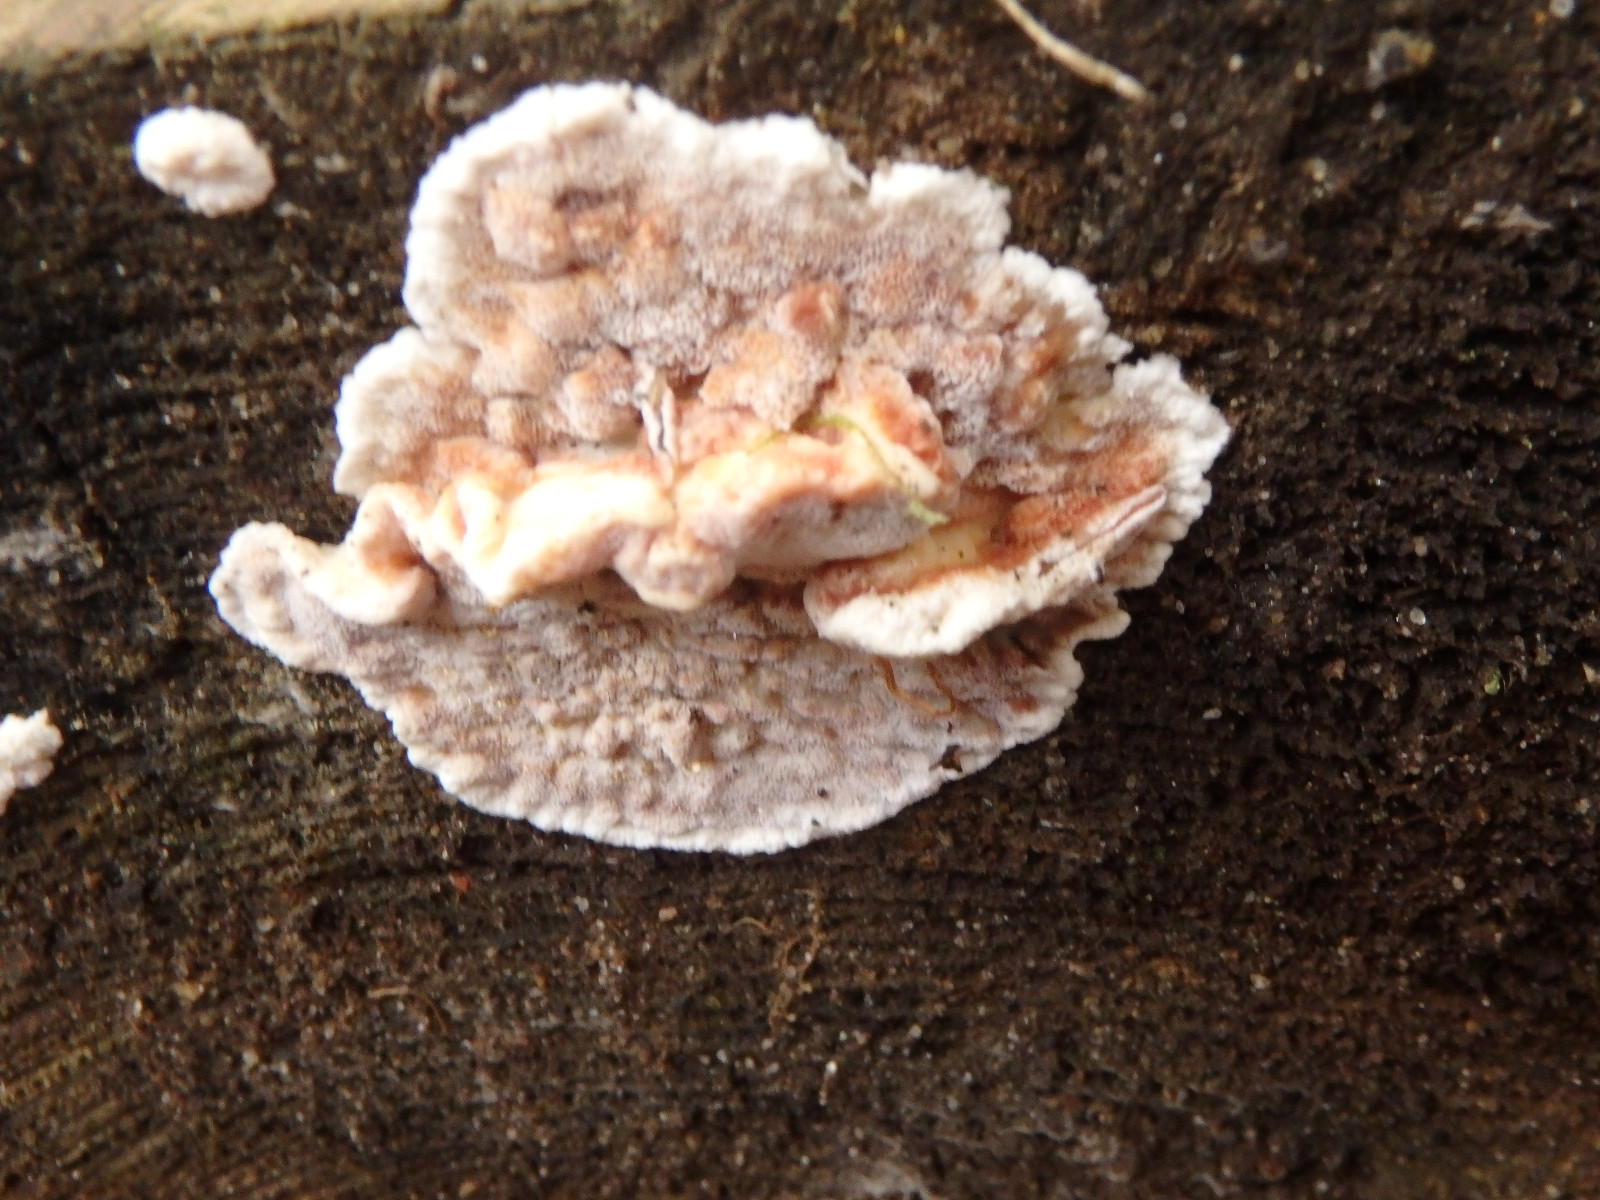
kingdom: Fungi
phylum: Basidiomycota
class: Agaricomycetes
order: Polyporales
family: Fomitopsidaceae
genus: Neoantrodia
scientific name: Neoantrodia serialis
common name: række-sejporesvamp
